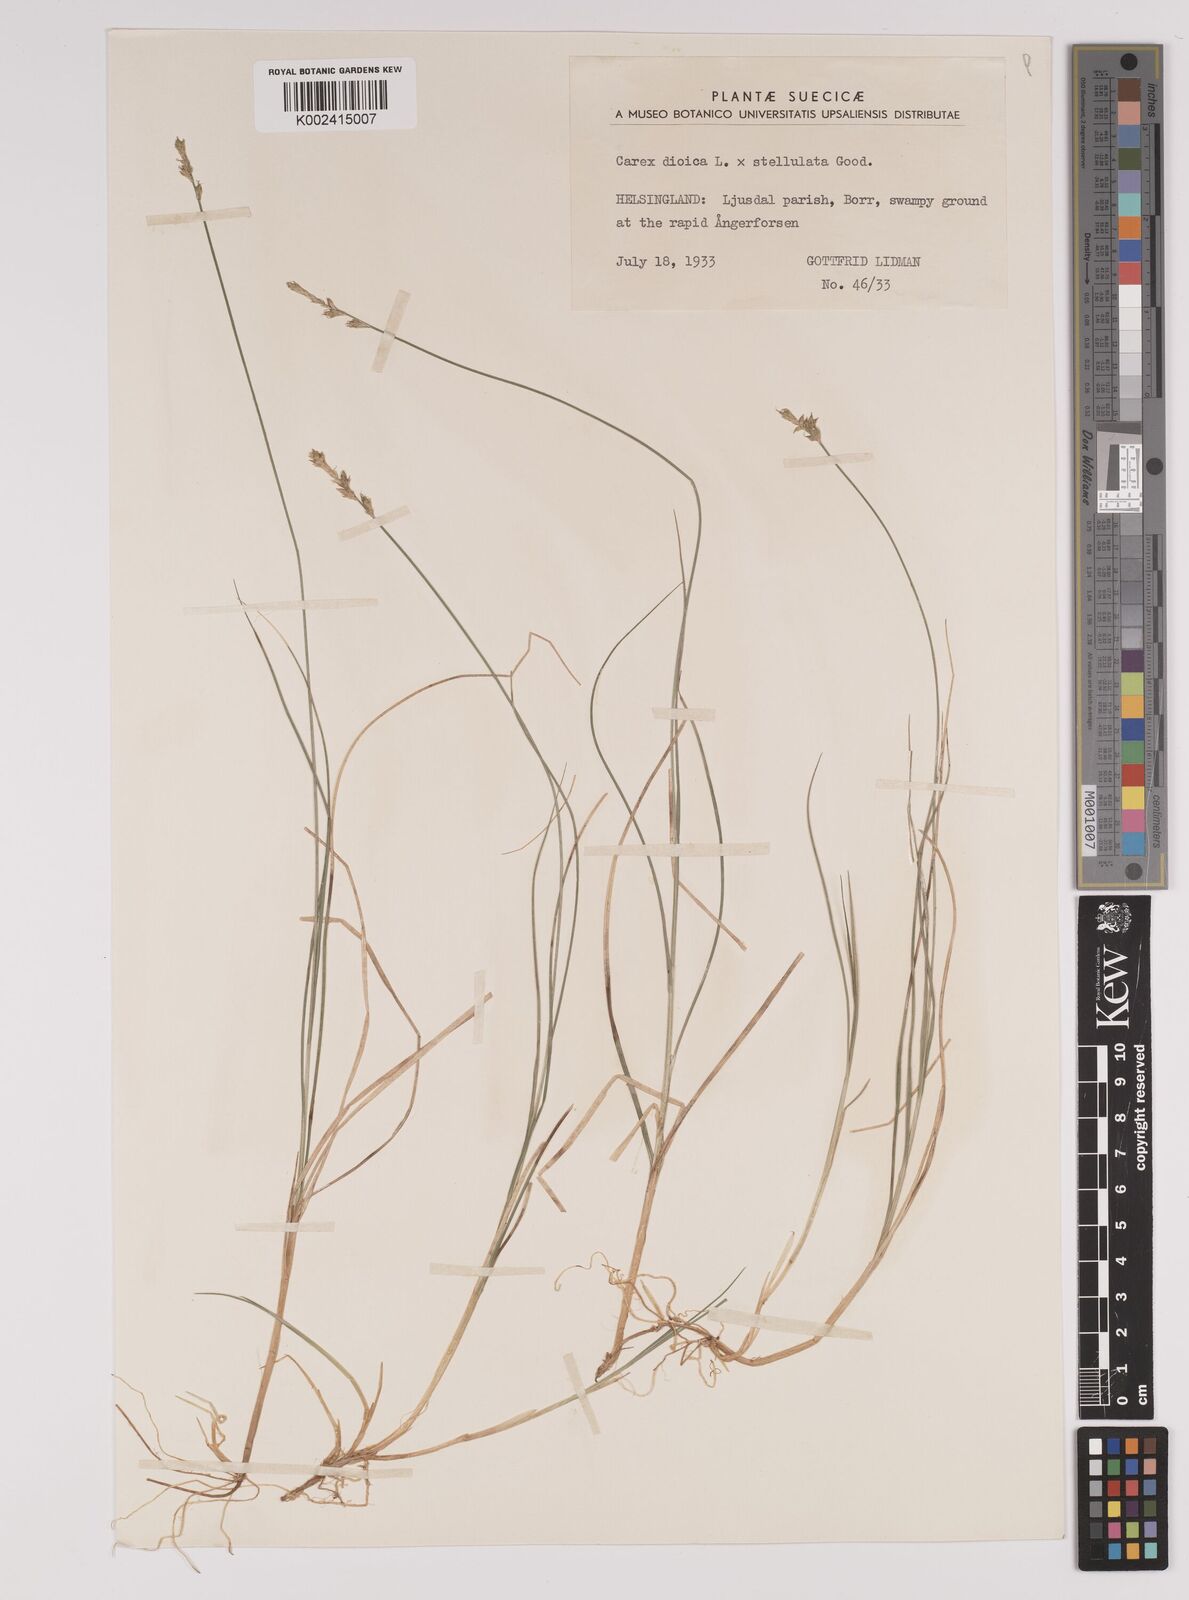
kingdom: Plantae
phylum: Tracheophyta
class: Liliopsida
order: Poales
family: Cyperaceae
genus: Carex
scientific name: Carex dioica
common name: Dioecious sedge
